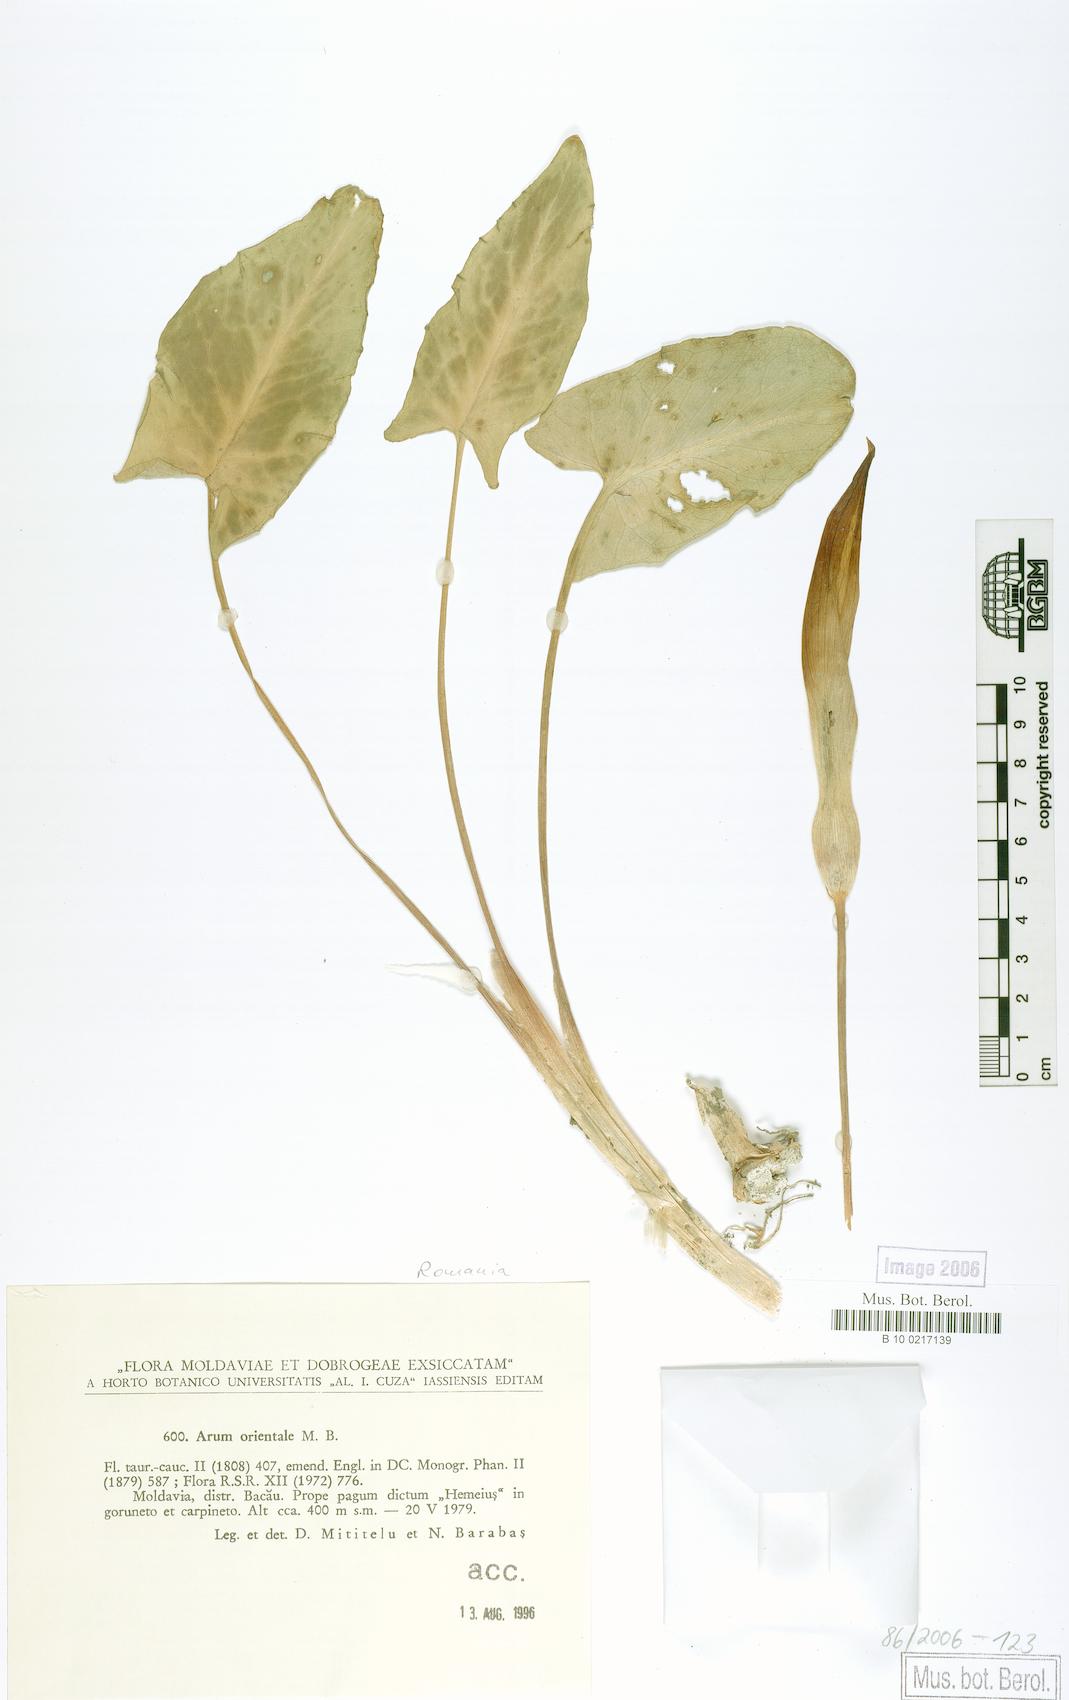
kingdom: Plantae
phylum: Tracheophyta
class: Liliopsida
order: Alismatales
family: Araceae
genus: Arum
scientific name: Arum orientale
